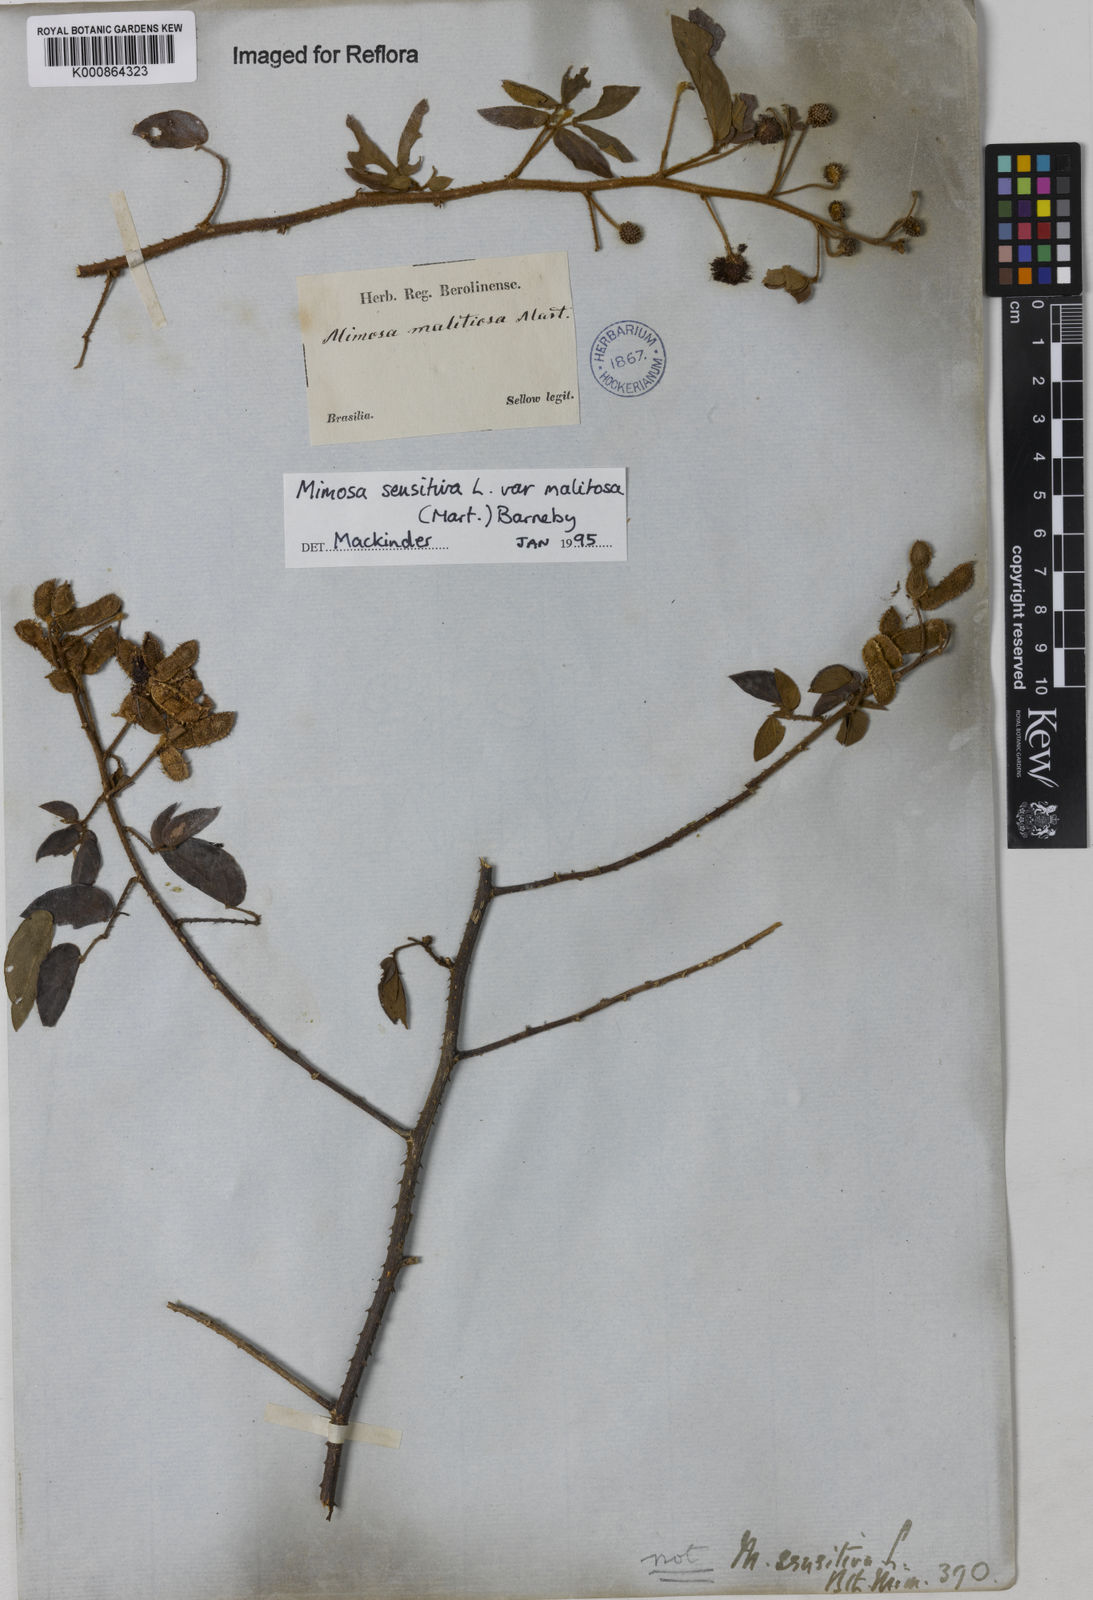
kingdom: Plantae
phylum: Tracheophyta
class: Magnoliopsida
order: Fabales
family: Fabaceae
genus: Mimosa
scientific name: Mimosa sensitiva
